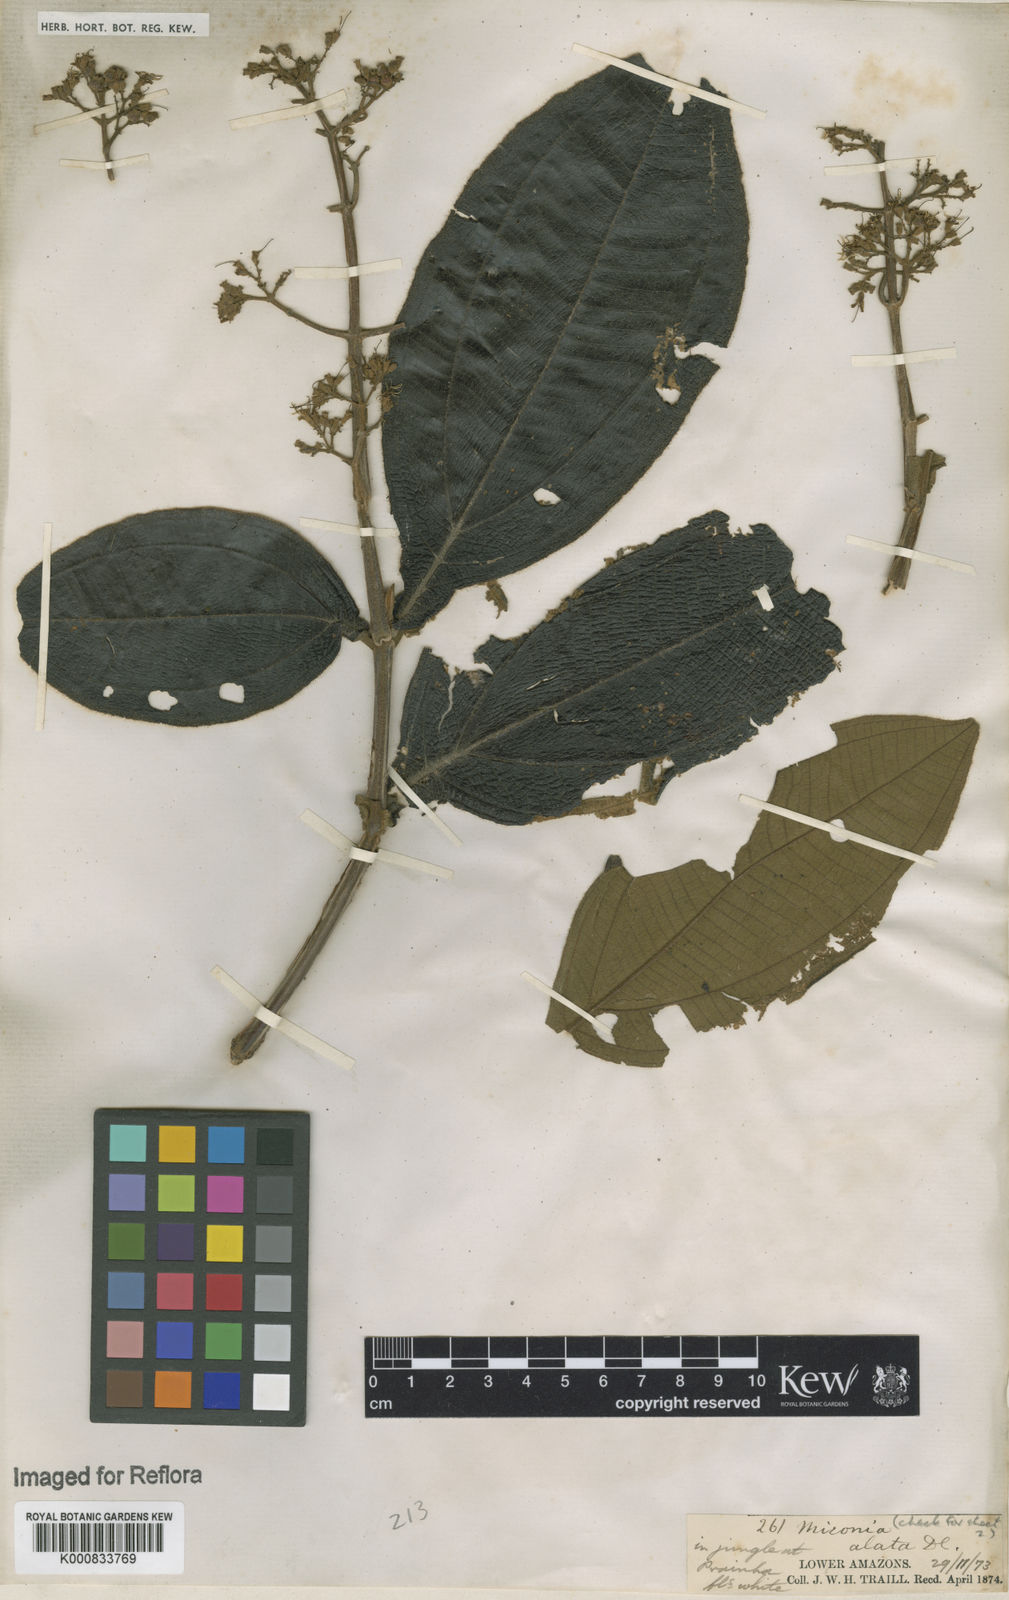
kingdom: Plantae
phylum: Tracheophyta
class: Magnoliopsida
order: Myrtales
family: Melastomataceae
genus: Miconia
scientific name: Miconia alata
